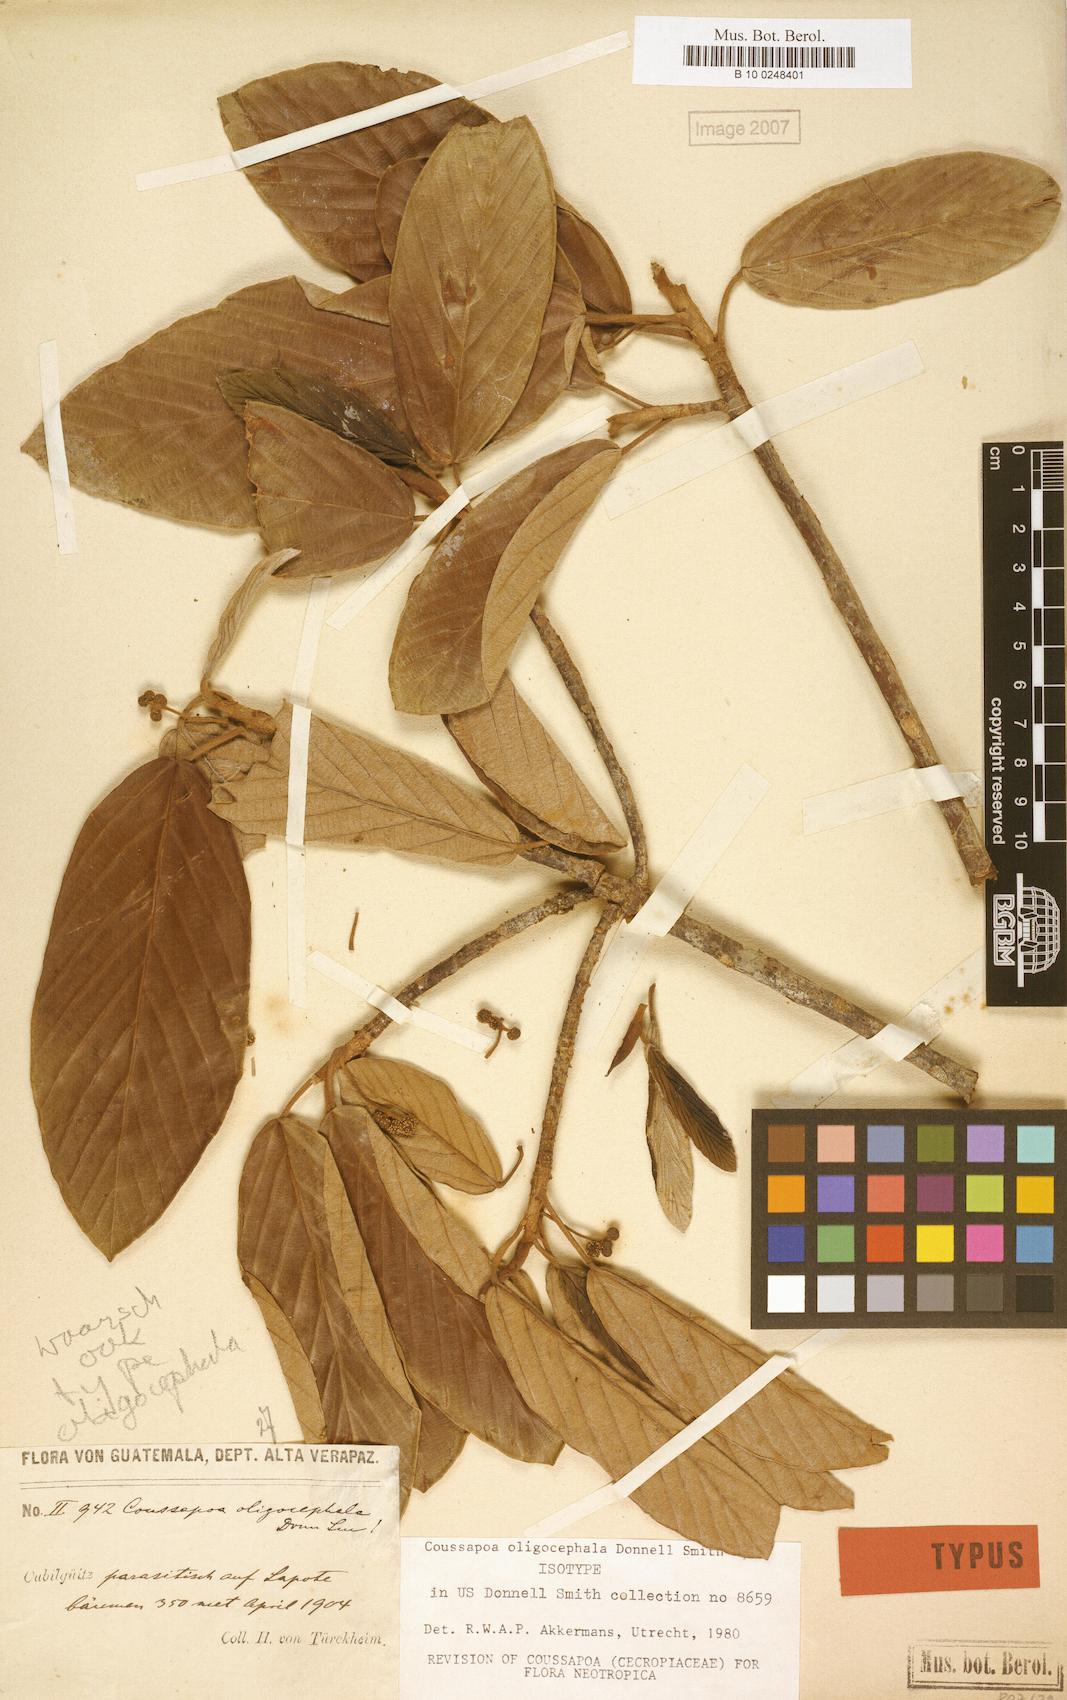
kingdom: Plantae
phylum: Tracheophyta
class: Magnoliopsida
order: Rosales
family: Urticaceae
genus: Coussapoa
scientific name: Coussapoa oligocephala
